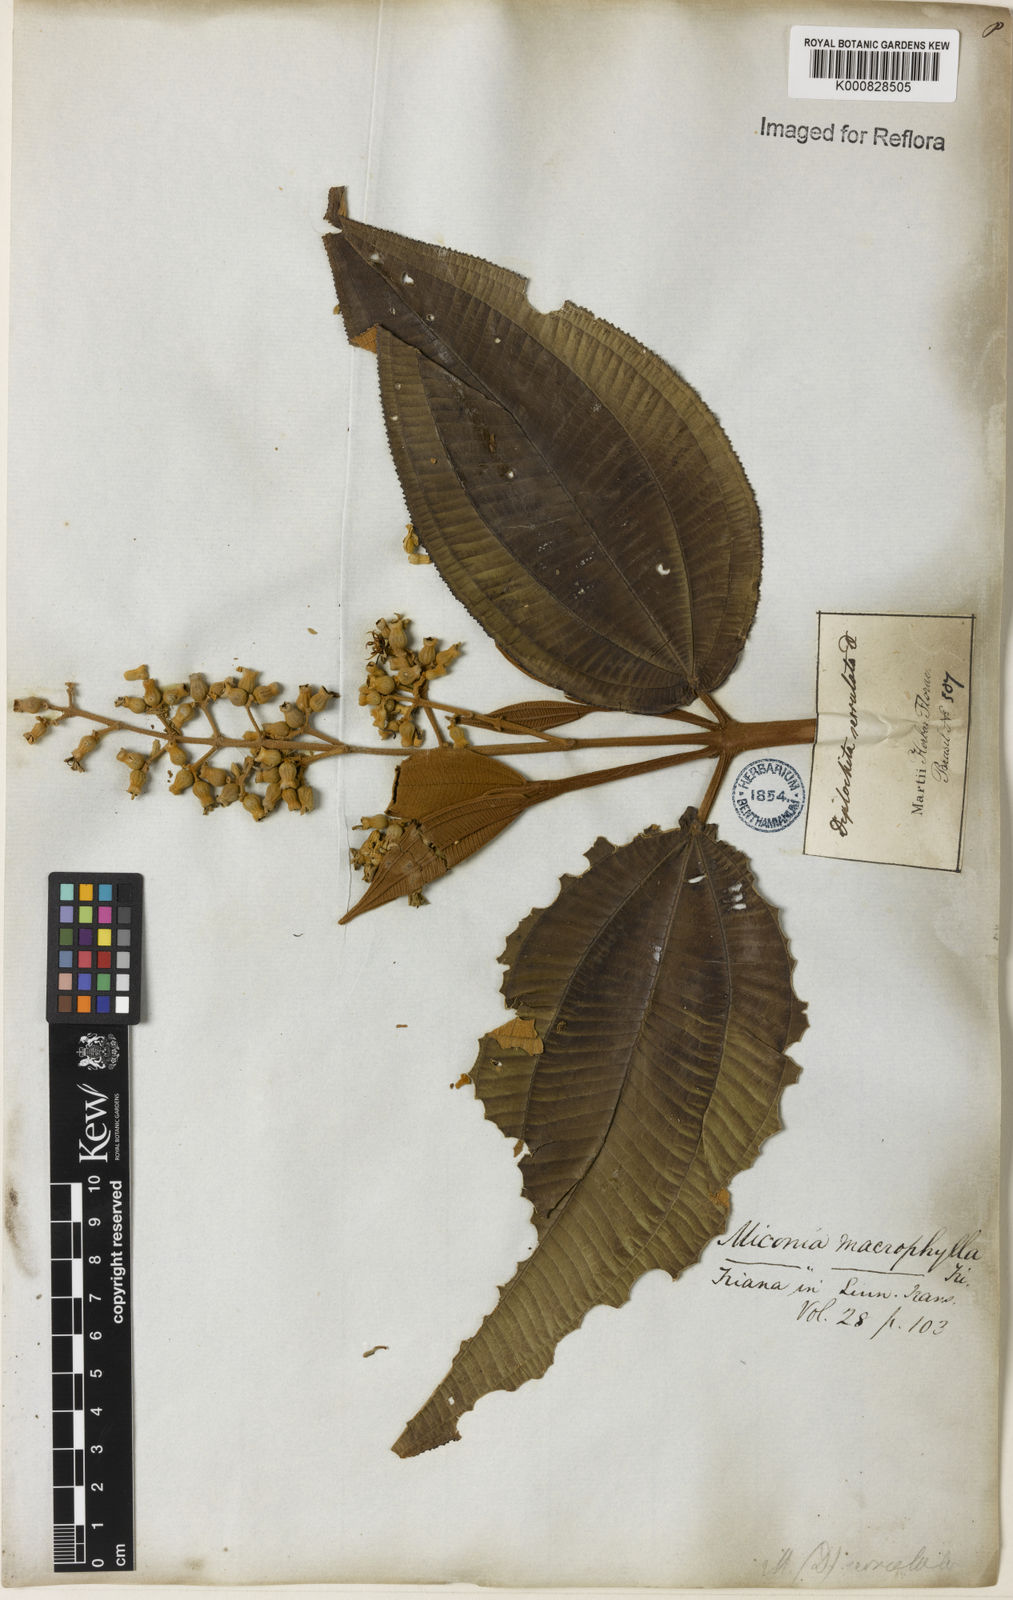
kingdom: Plantae
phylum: Tracheophyta
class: Magnoliopsida
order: Myrtales
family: Melastomataceae
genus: Miconia
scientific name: Miconia serrulata
